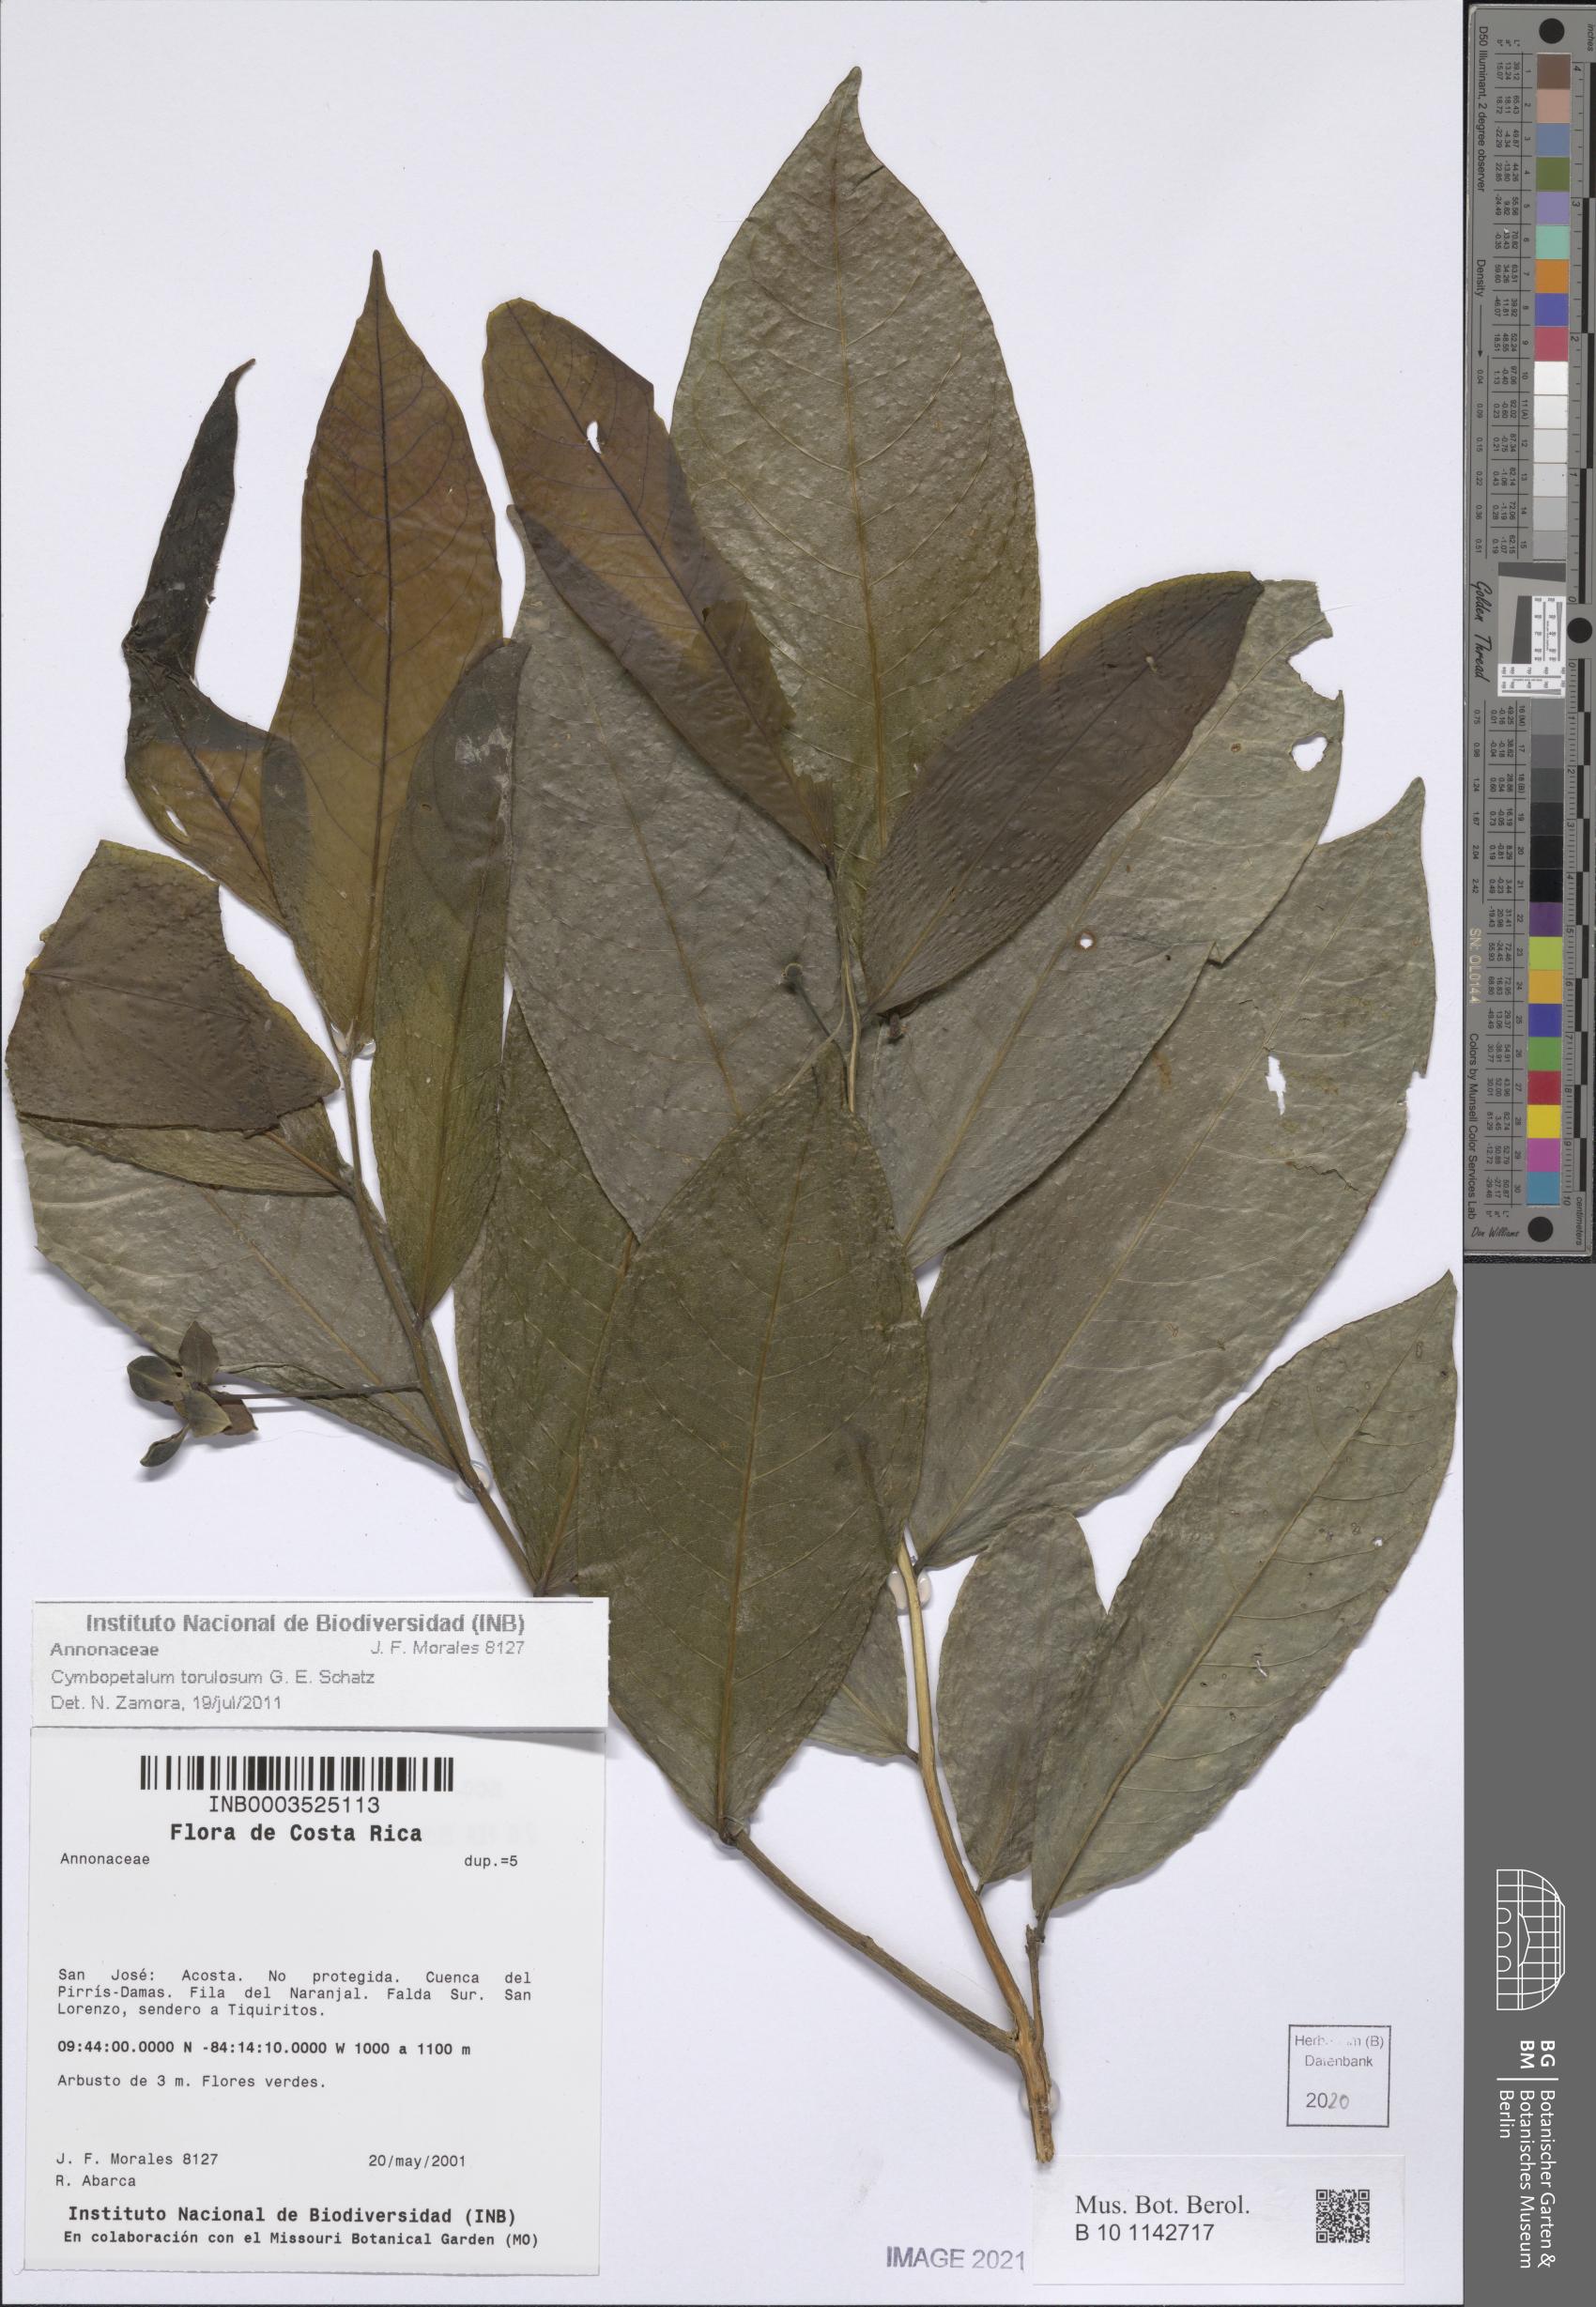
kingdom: Plantae
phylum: Tracheophyta
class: Magnoliopsida
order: Magnoliales
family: Annonaceae
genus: Cymbopetalum
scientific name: Cymbopetalum torulosum
